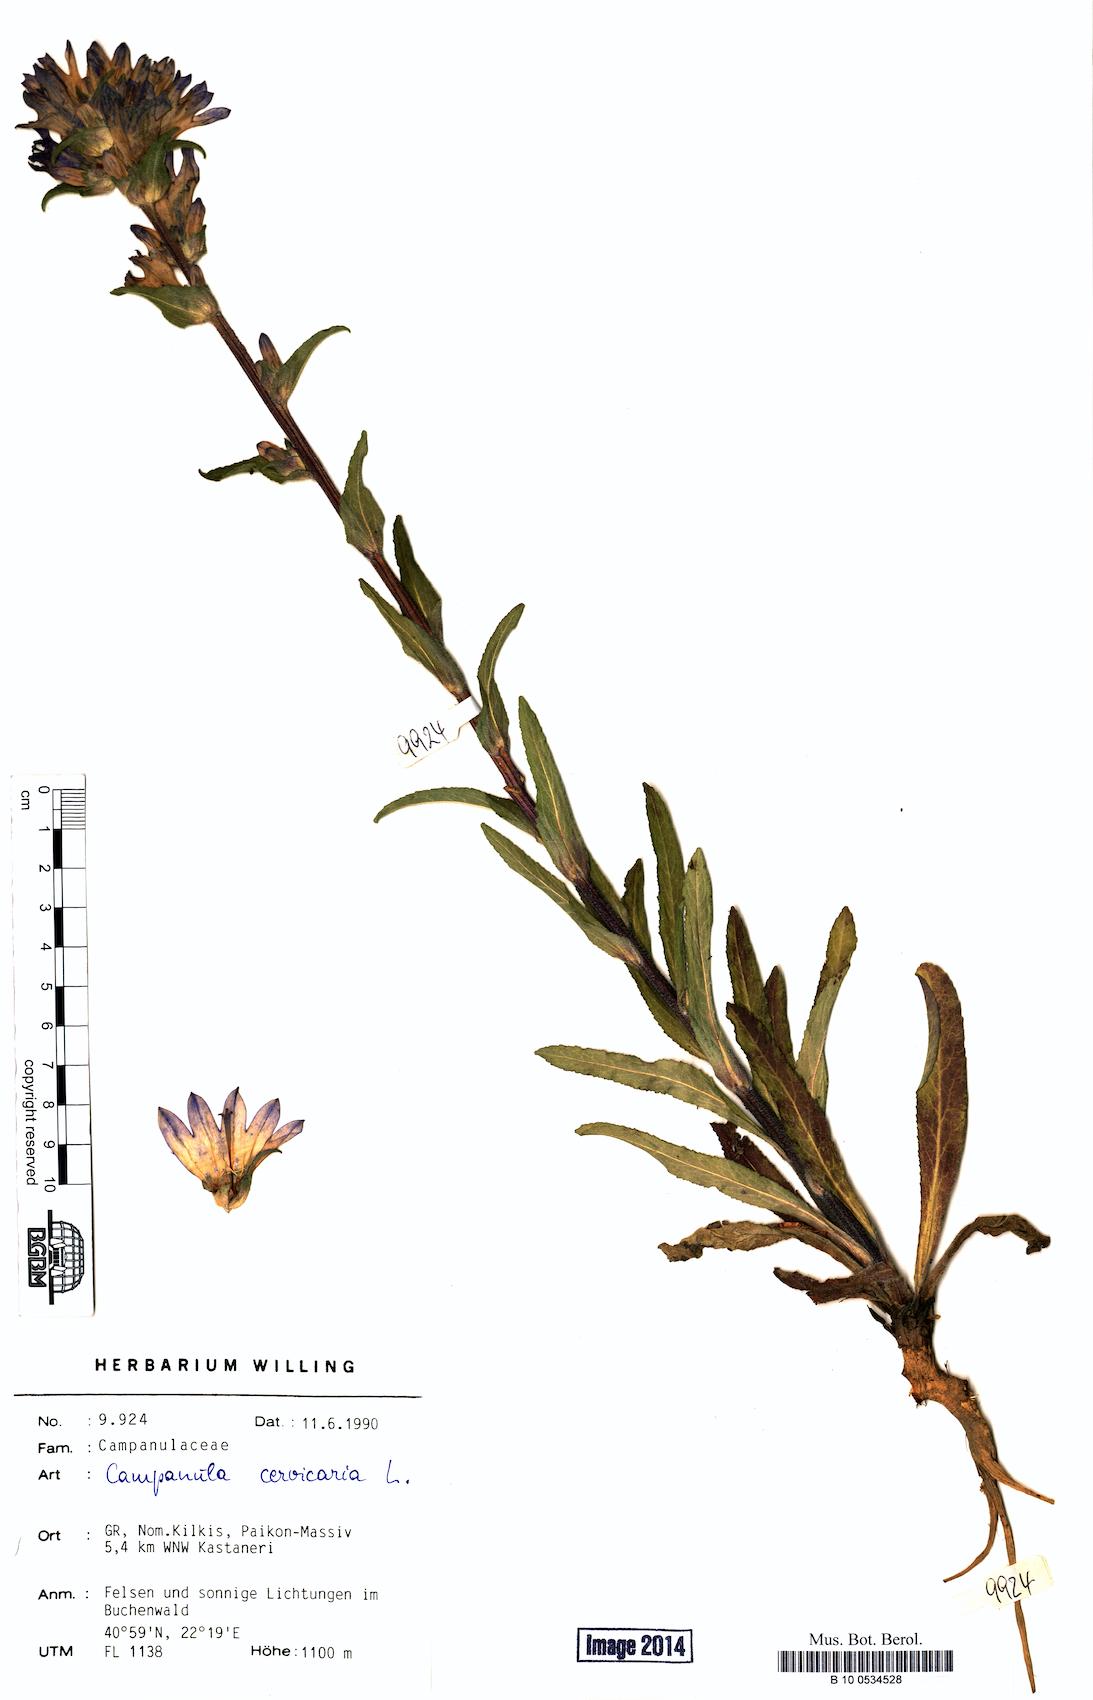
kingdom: Plantae
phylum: Tracheophyta
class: Magnoliopsida
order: Asterales
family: Campanulaceae
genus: Campanula
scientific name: Campanula cervicaria
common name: Bristly bellflower
